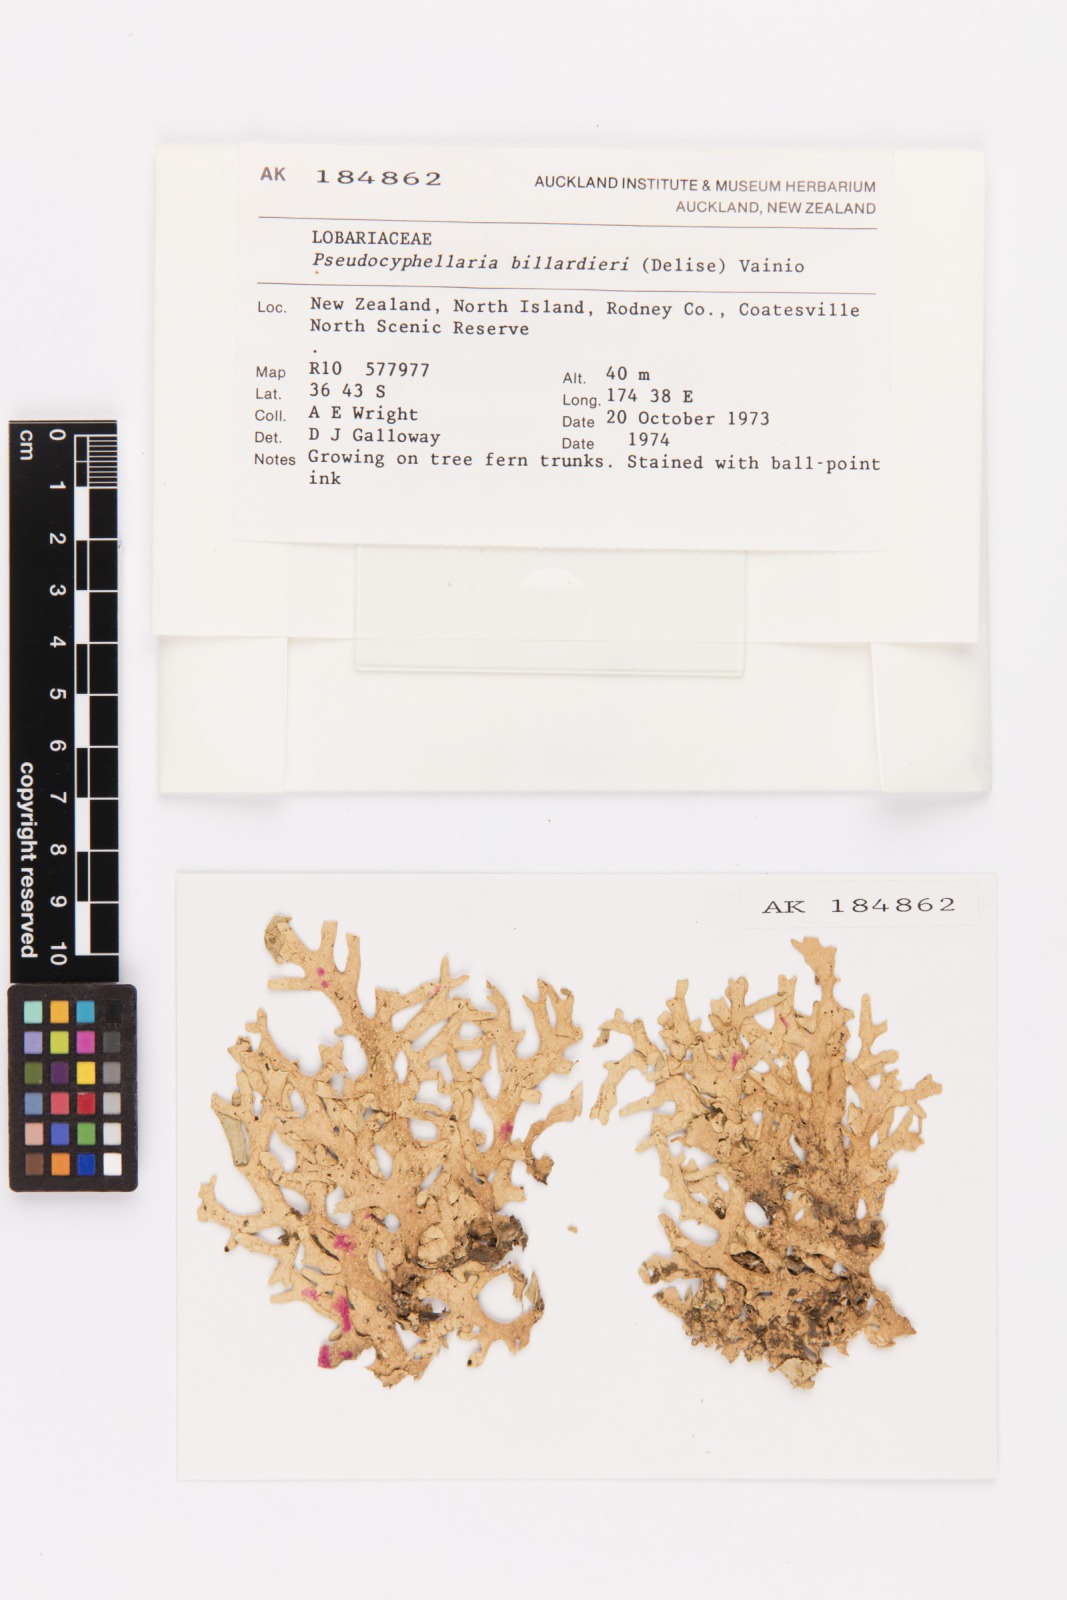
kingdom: Fungi
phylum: Ascomycota
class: Lecanoromycetes
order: Peltigerales
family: Lobariaceae
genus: Pseudocyphellaria
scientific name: Pseudocyphellaria billardierei
